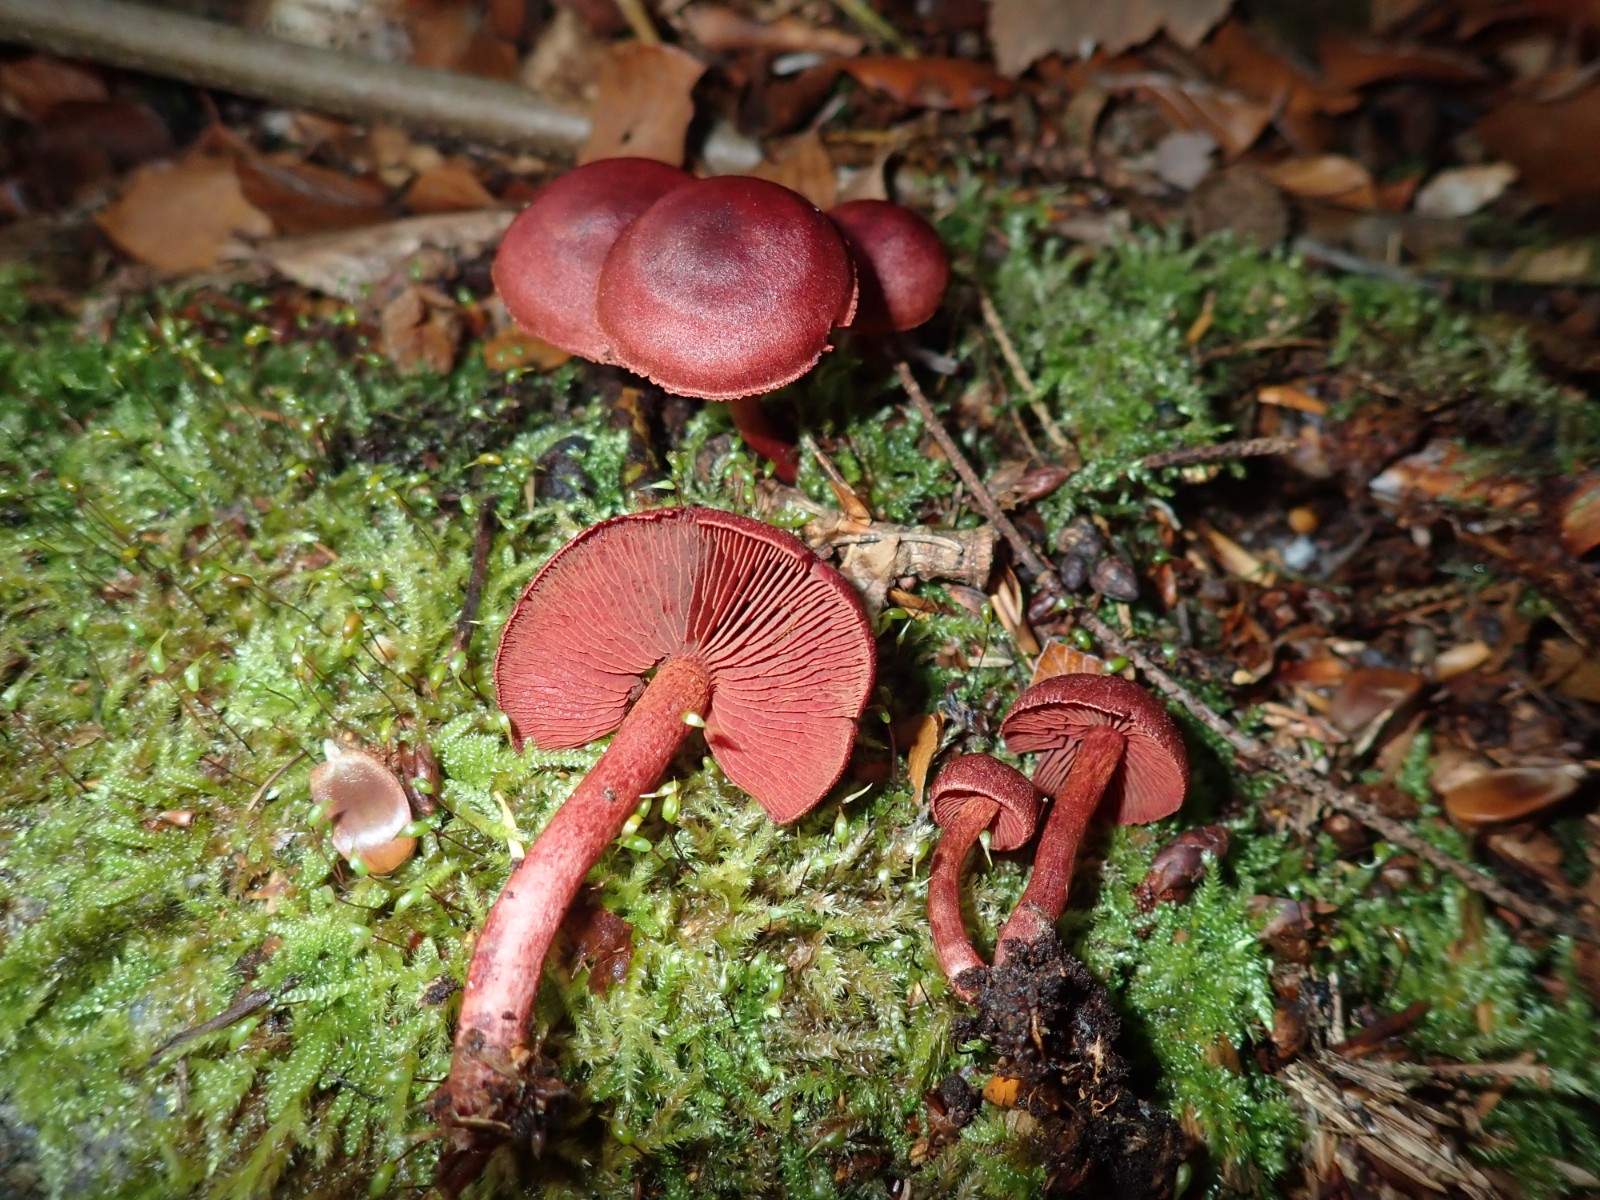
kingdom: Fungi
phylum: Basidiomycota
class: Agaricomycetes
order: Agaricales
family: Cortinariaceae
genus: Cortinarius
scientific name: Cortinarius
